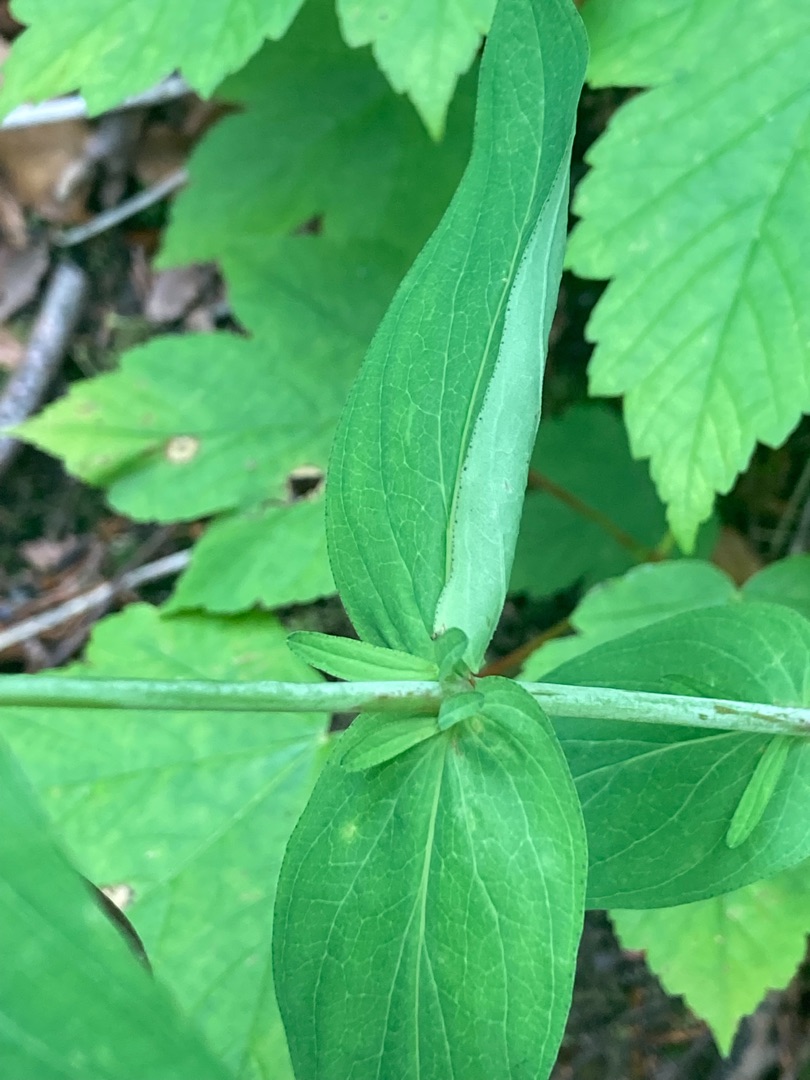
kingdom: Plantae
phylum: Tracheophyta
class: Magnoliopsida
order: Malpighiales
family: Hypericaceae
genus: Hypericum
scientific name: Hypericum montanum
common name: Bjerg-perikon
